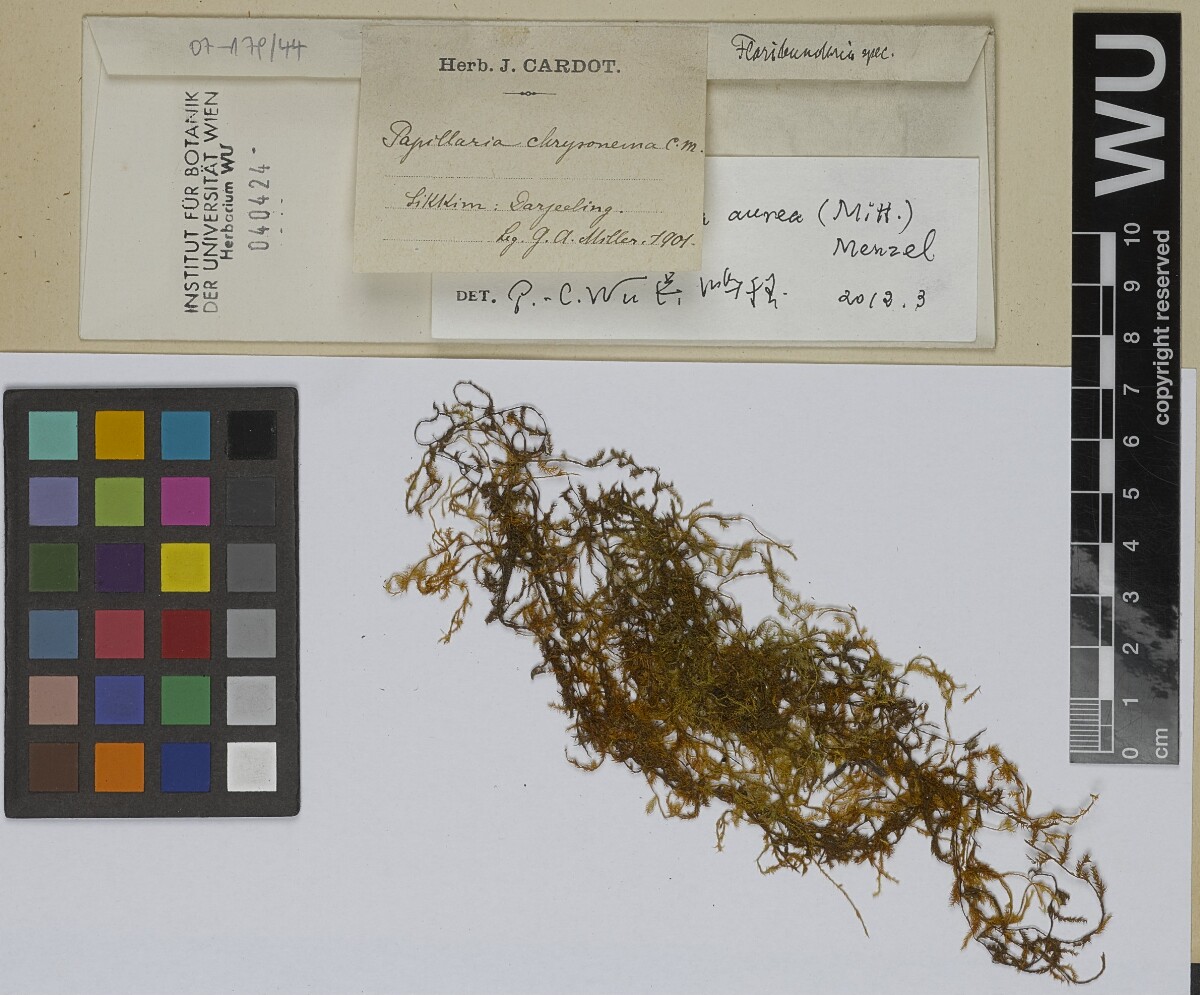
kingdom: Plantae
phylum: Bryophyta
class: Bryopsida
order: Hypnales
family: Meteoriaceae
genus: Trachycladiella
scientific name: Trachycladiella aurea
